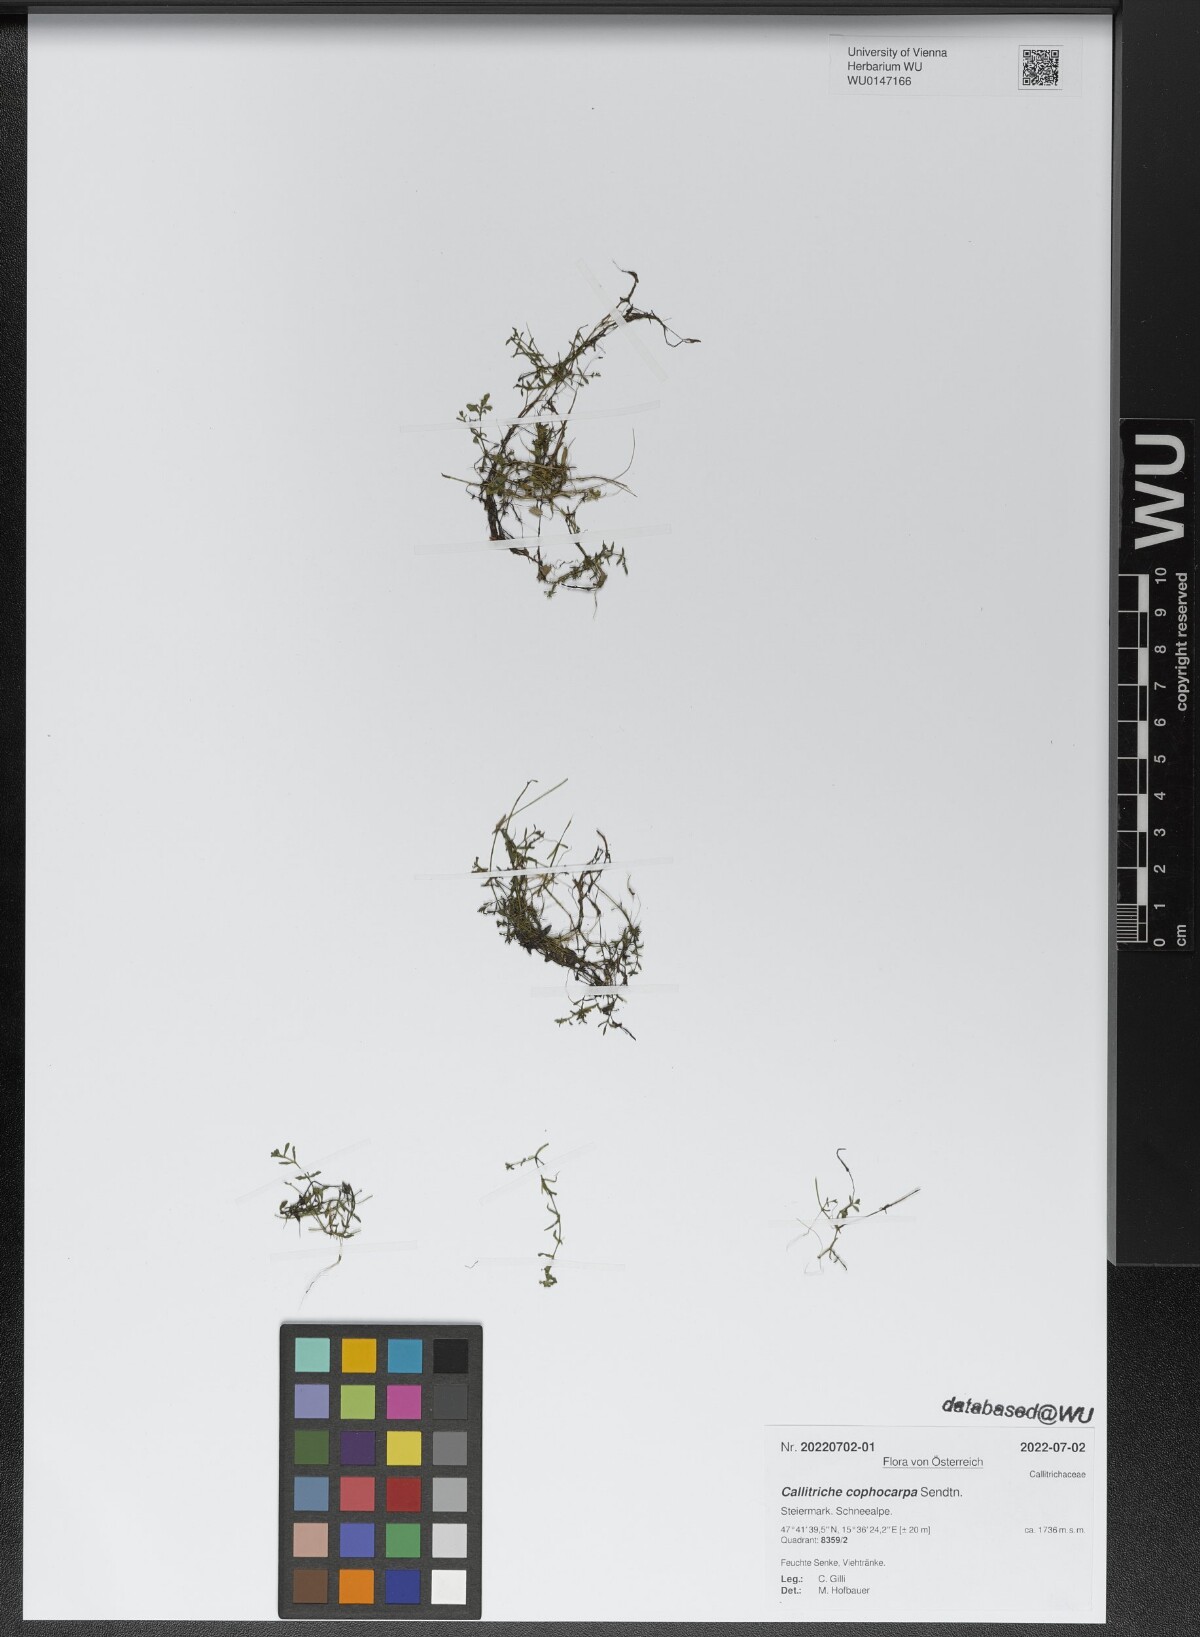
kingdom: Plantae
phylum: Tracheophyta
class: Magnoliopsida
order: Lamiales
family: Plantaginaceae
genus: Callitriche
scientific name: Callitriche cophocarpa
